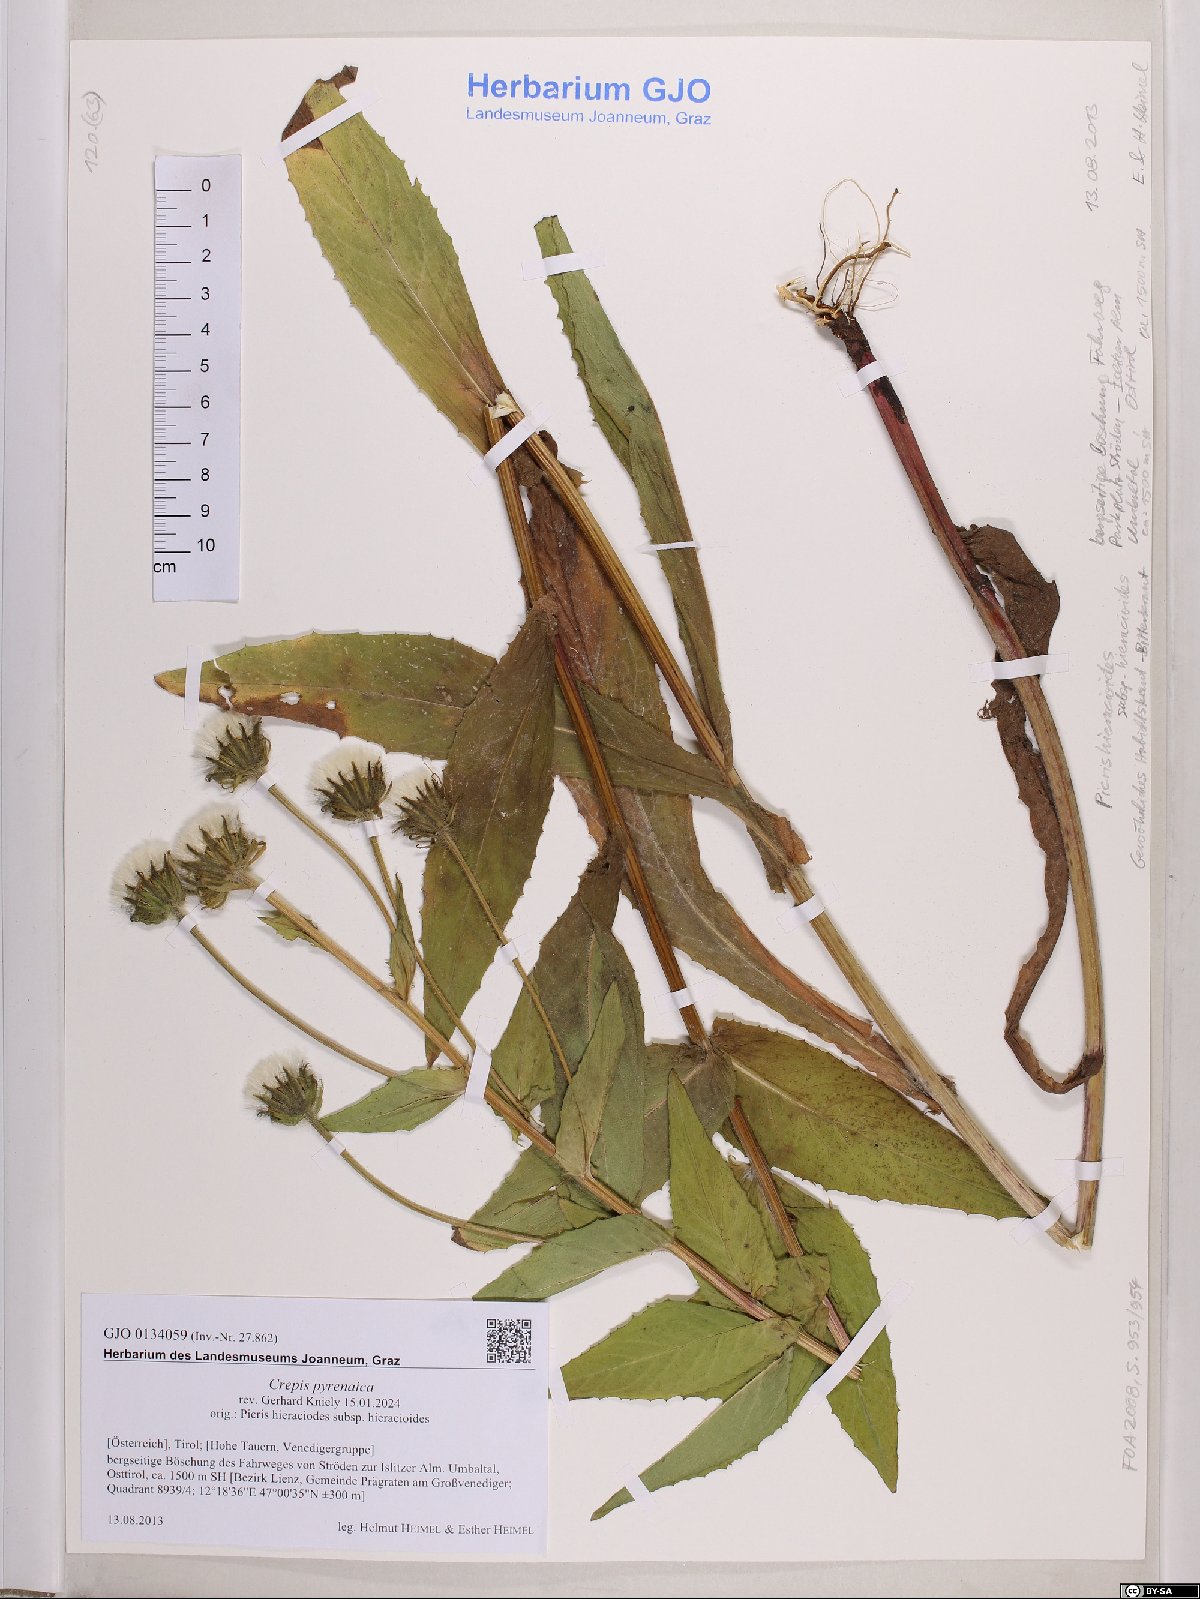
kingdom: Plantae
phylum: Tracheophyta
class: Magnoliopsida
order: Asterales
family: Asteraceae
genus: Crepis
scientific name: Crepis pyrenaica
